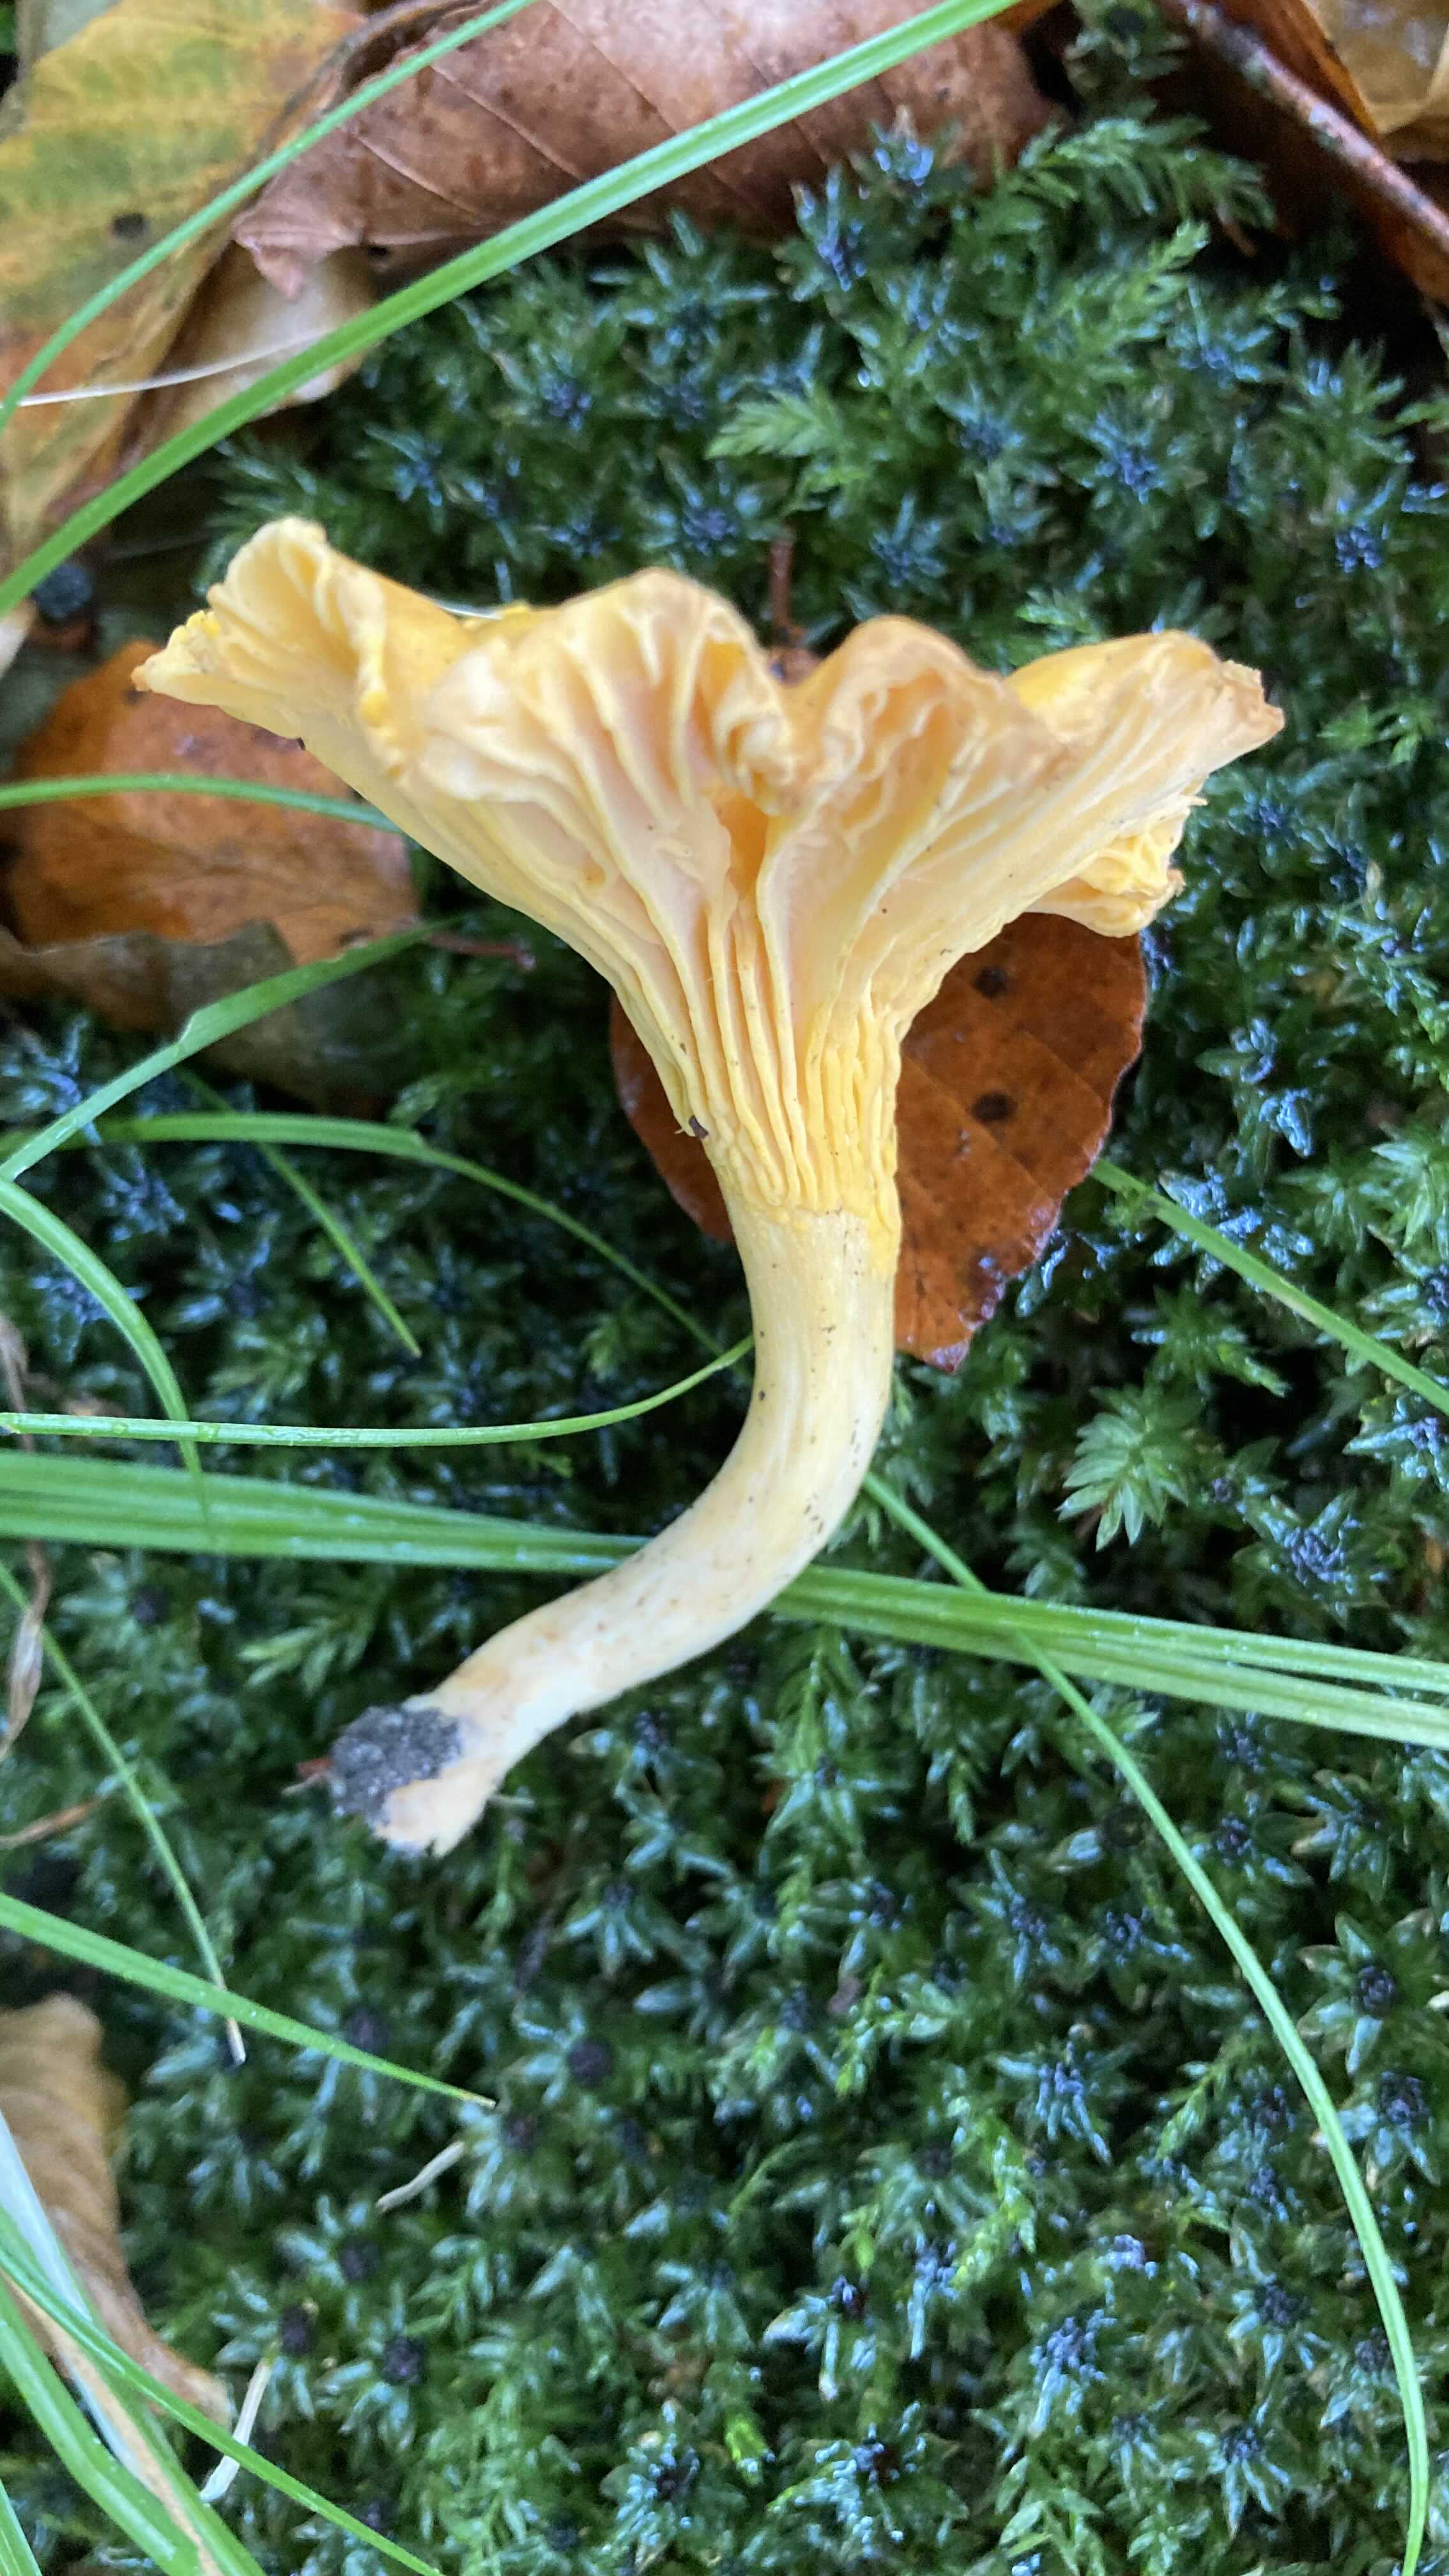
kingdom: Fungi
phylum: Basidiomycota
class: Agaricomycetes
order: Cantharellales
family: Hydnaceae
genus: Cantharellus
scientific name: Cantharellus cibarius
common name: almindelig kantarel
